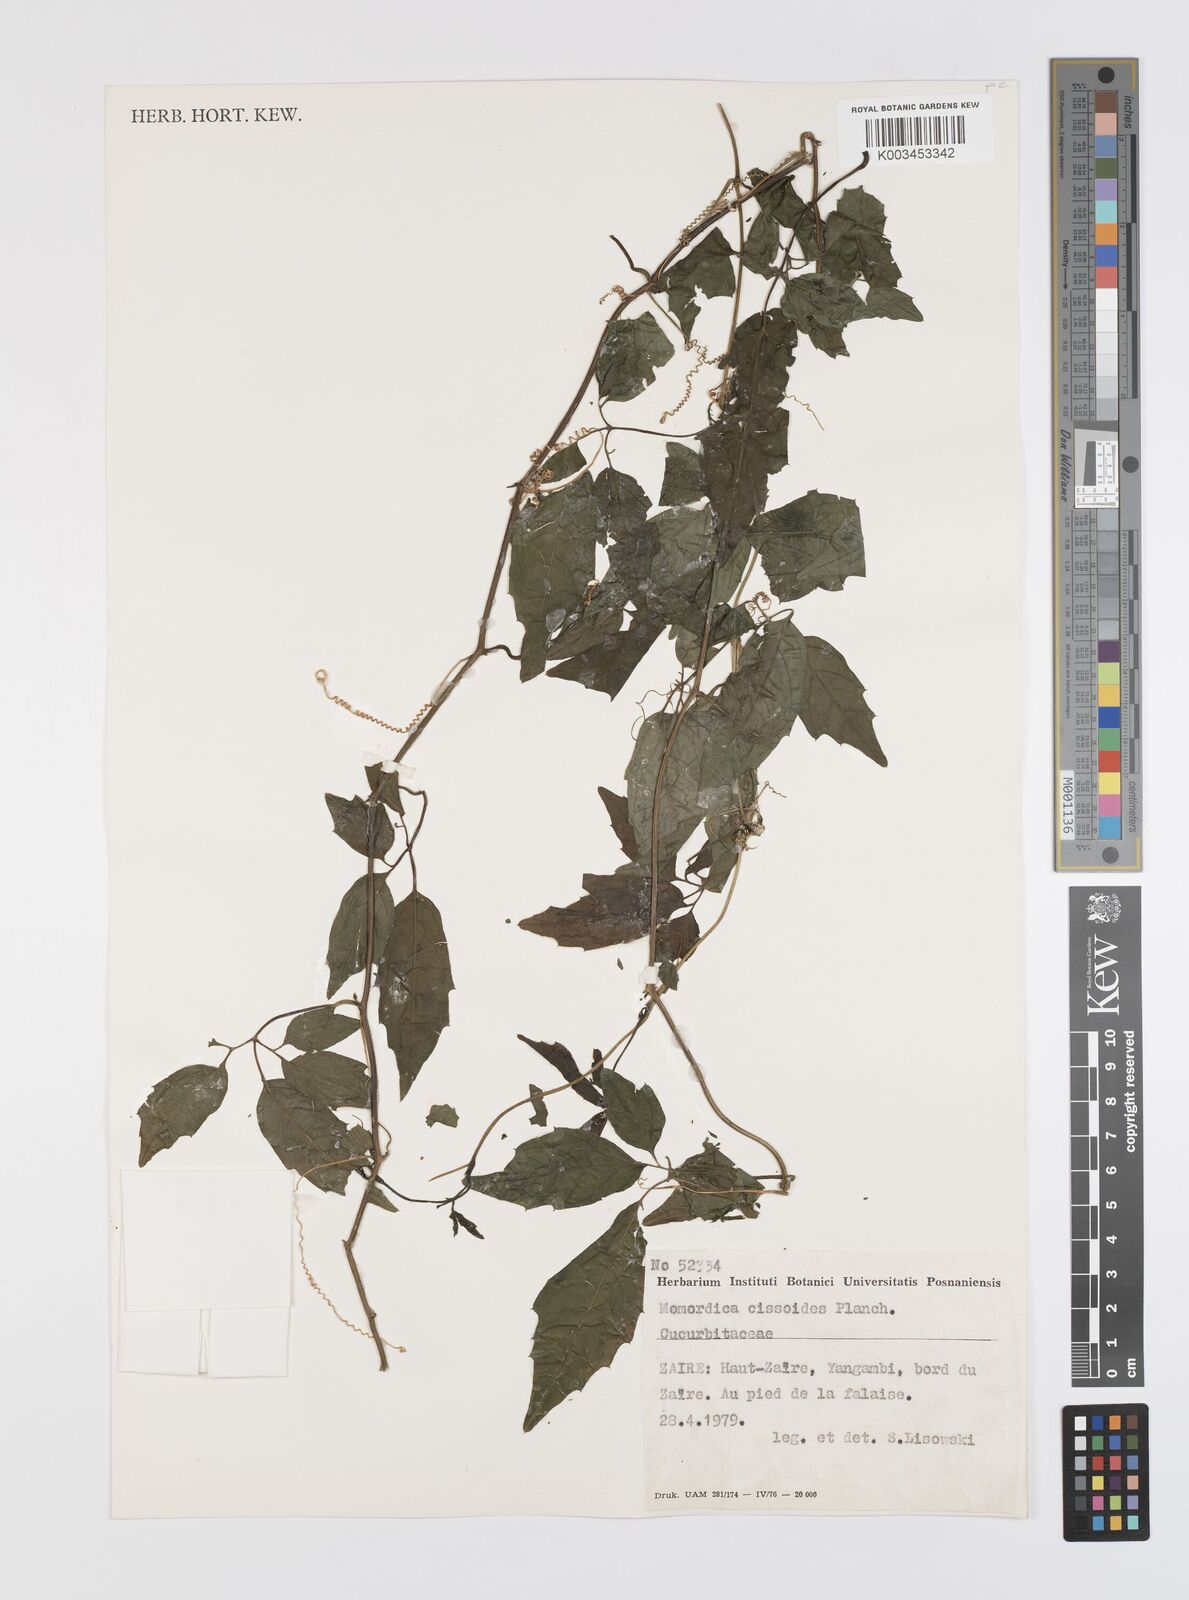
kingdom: Plantae
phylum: Tracheophyta
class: Magnoliopsida
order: Cucurbitales
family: Cucurbitaceae
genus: Momordica
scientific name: Momordica cissoides
